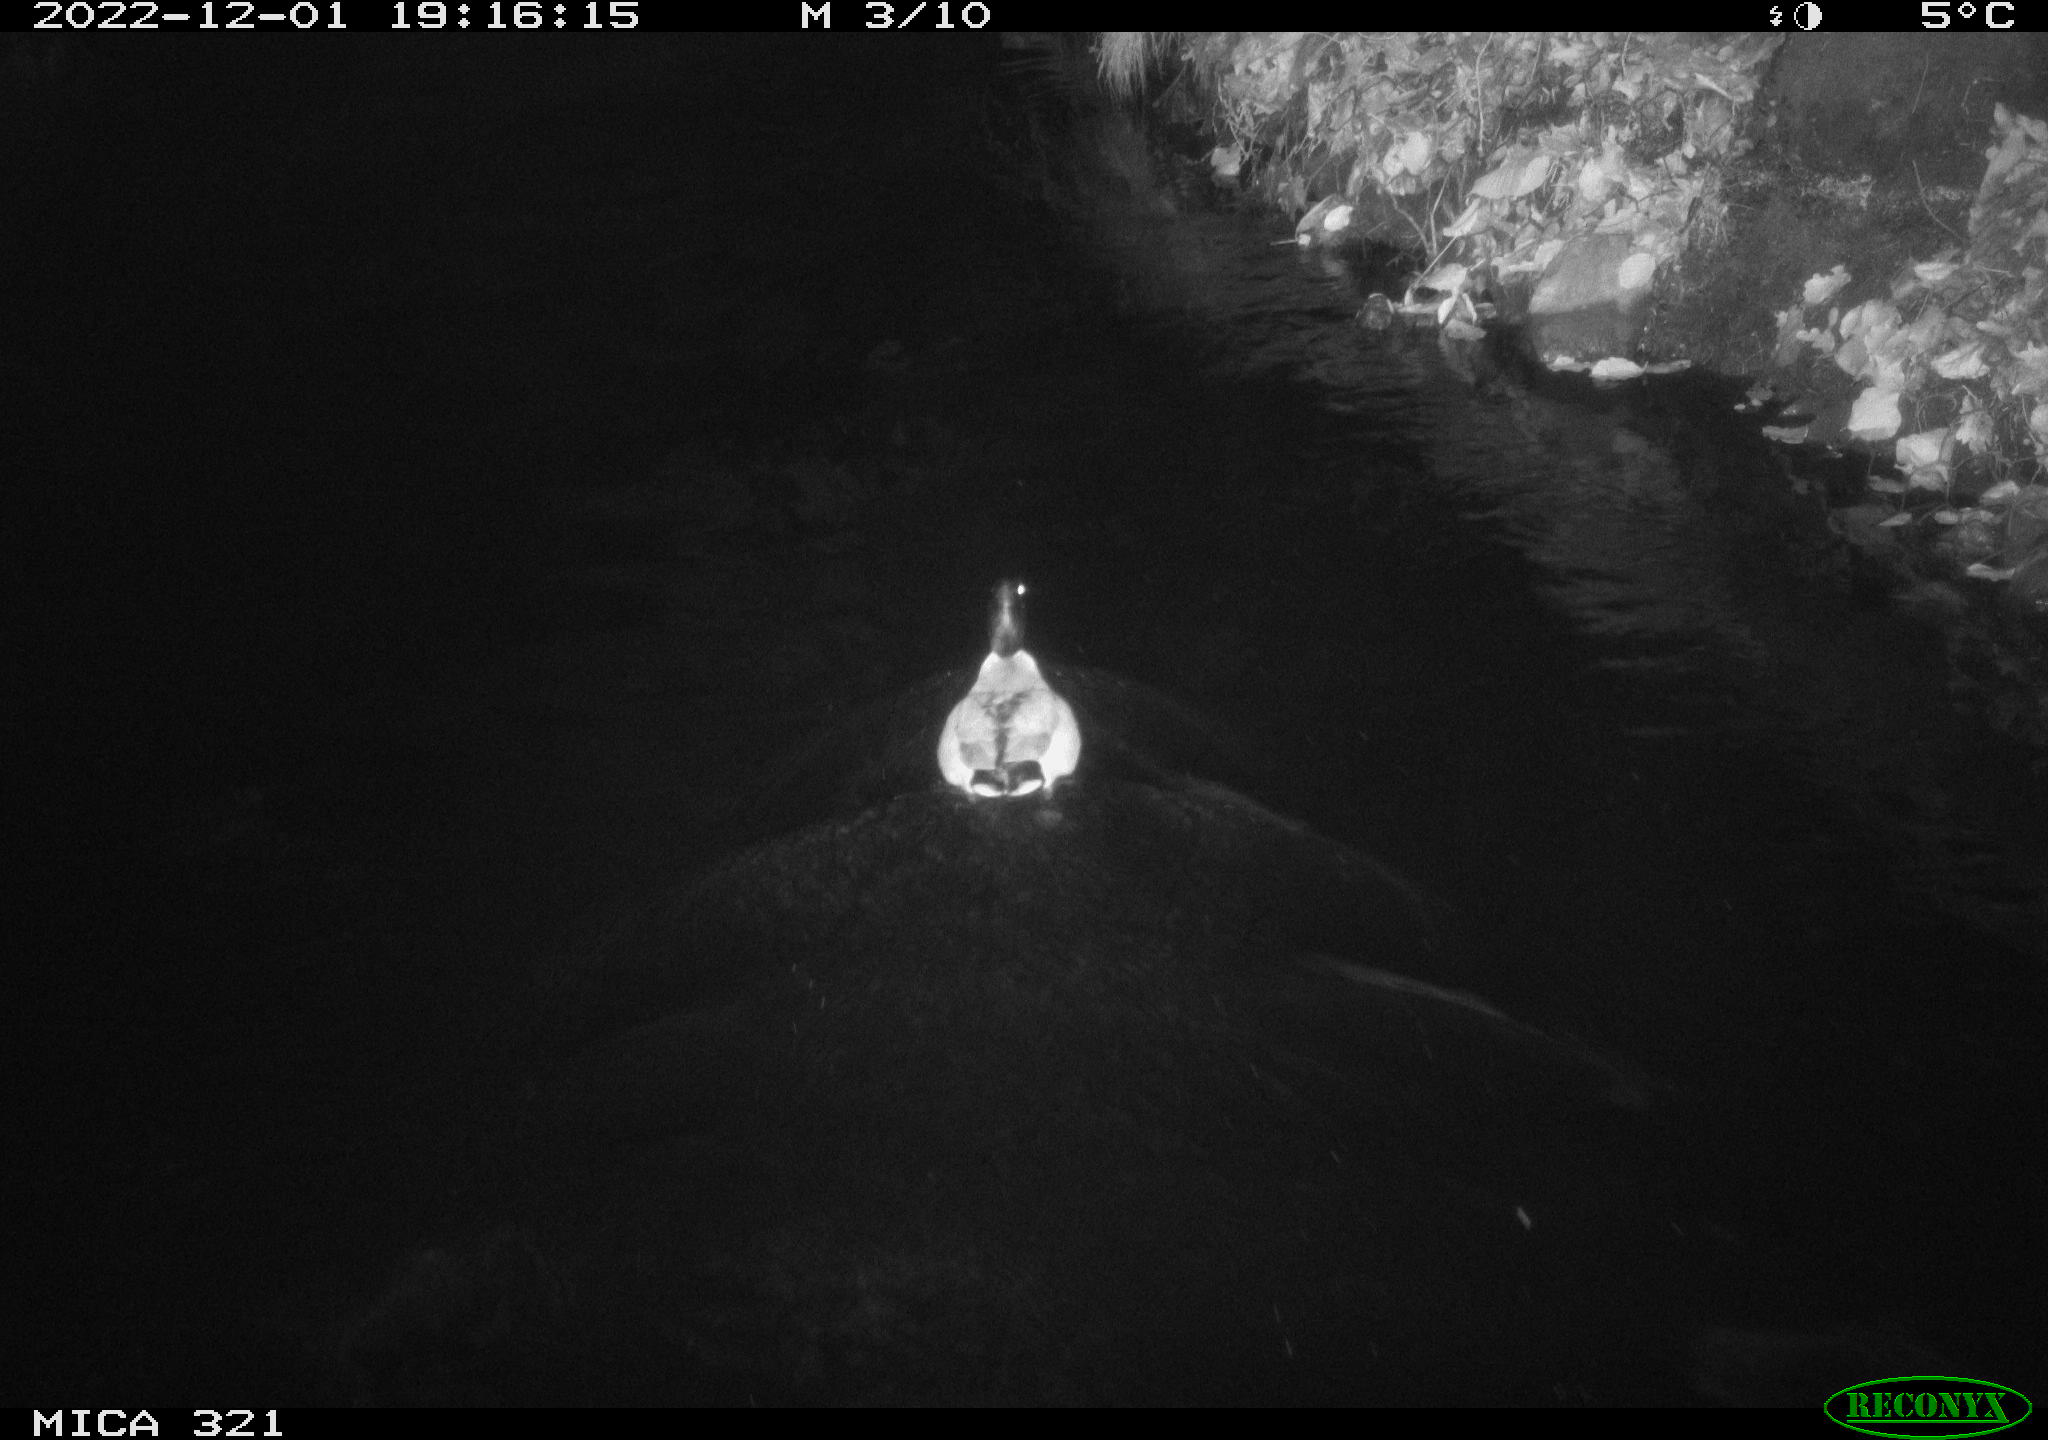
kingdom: Animalia
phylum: Chordata
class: Aves
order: Anseriformes
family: Anatidae
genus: Anas
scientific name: Anas
